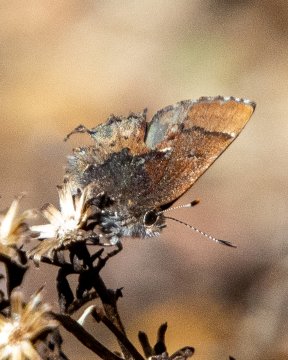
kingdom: Animalia
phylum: Arthropoda
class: Insecta
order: Lepidoptera
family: Lycaenidae
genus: Incisalia
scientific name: Incisalia henrici
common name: Henry's Elfin
